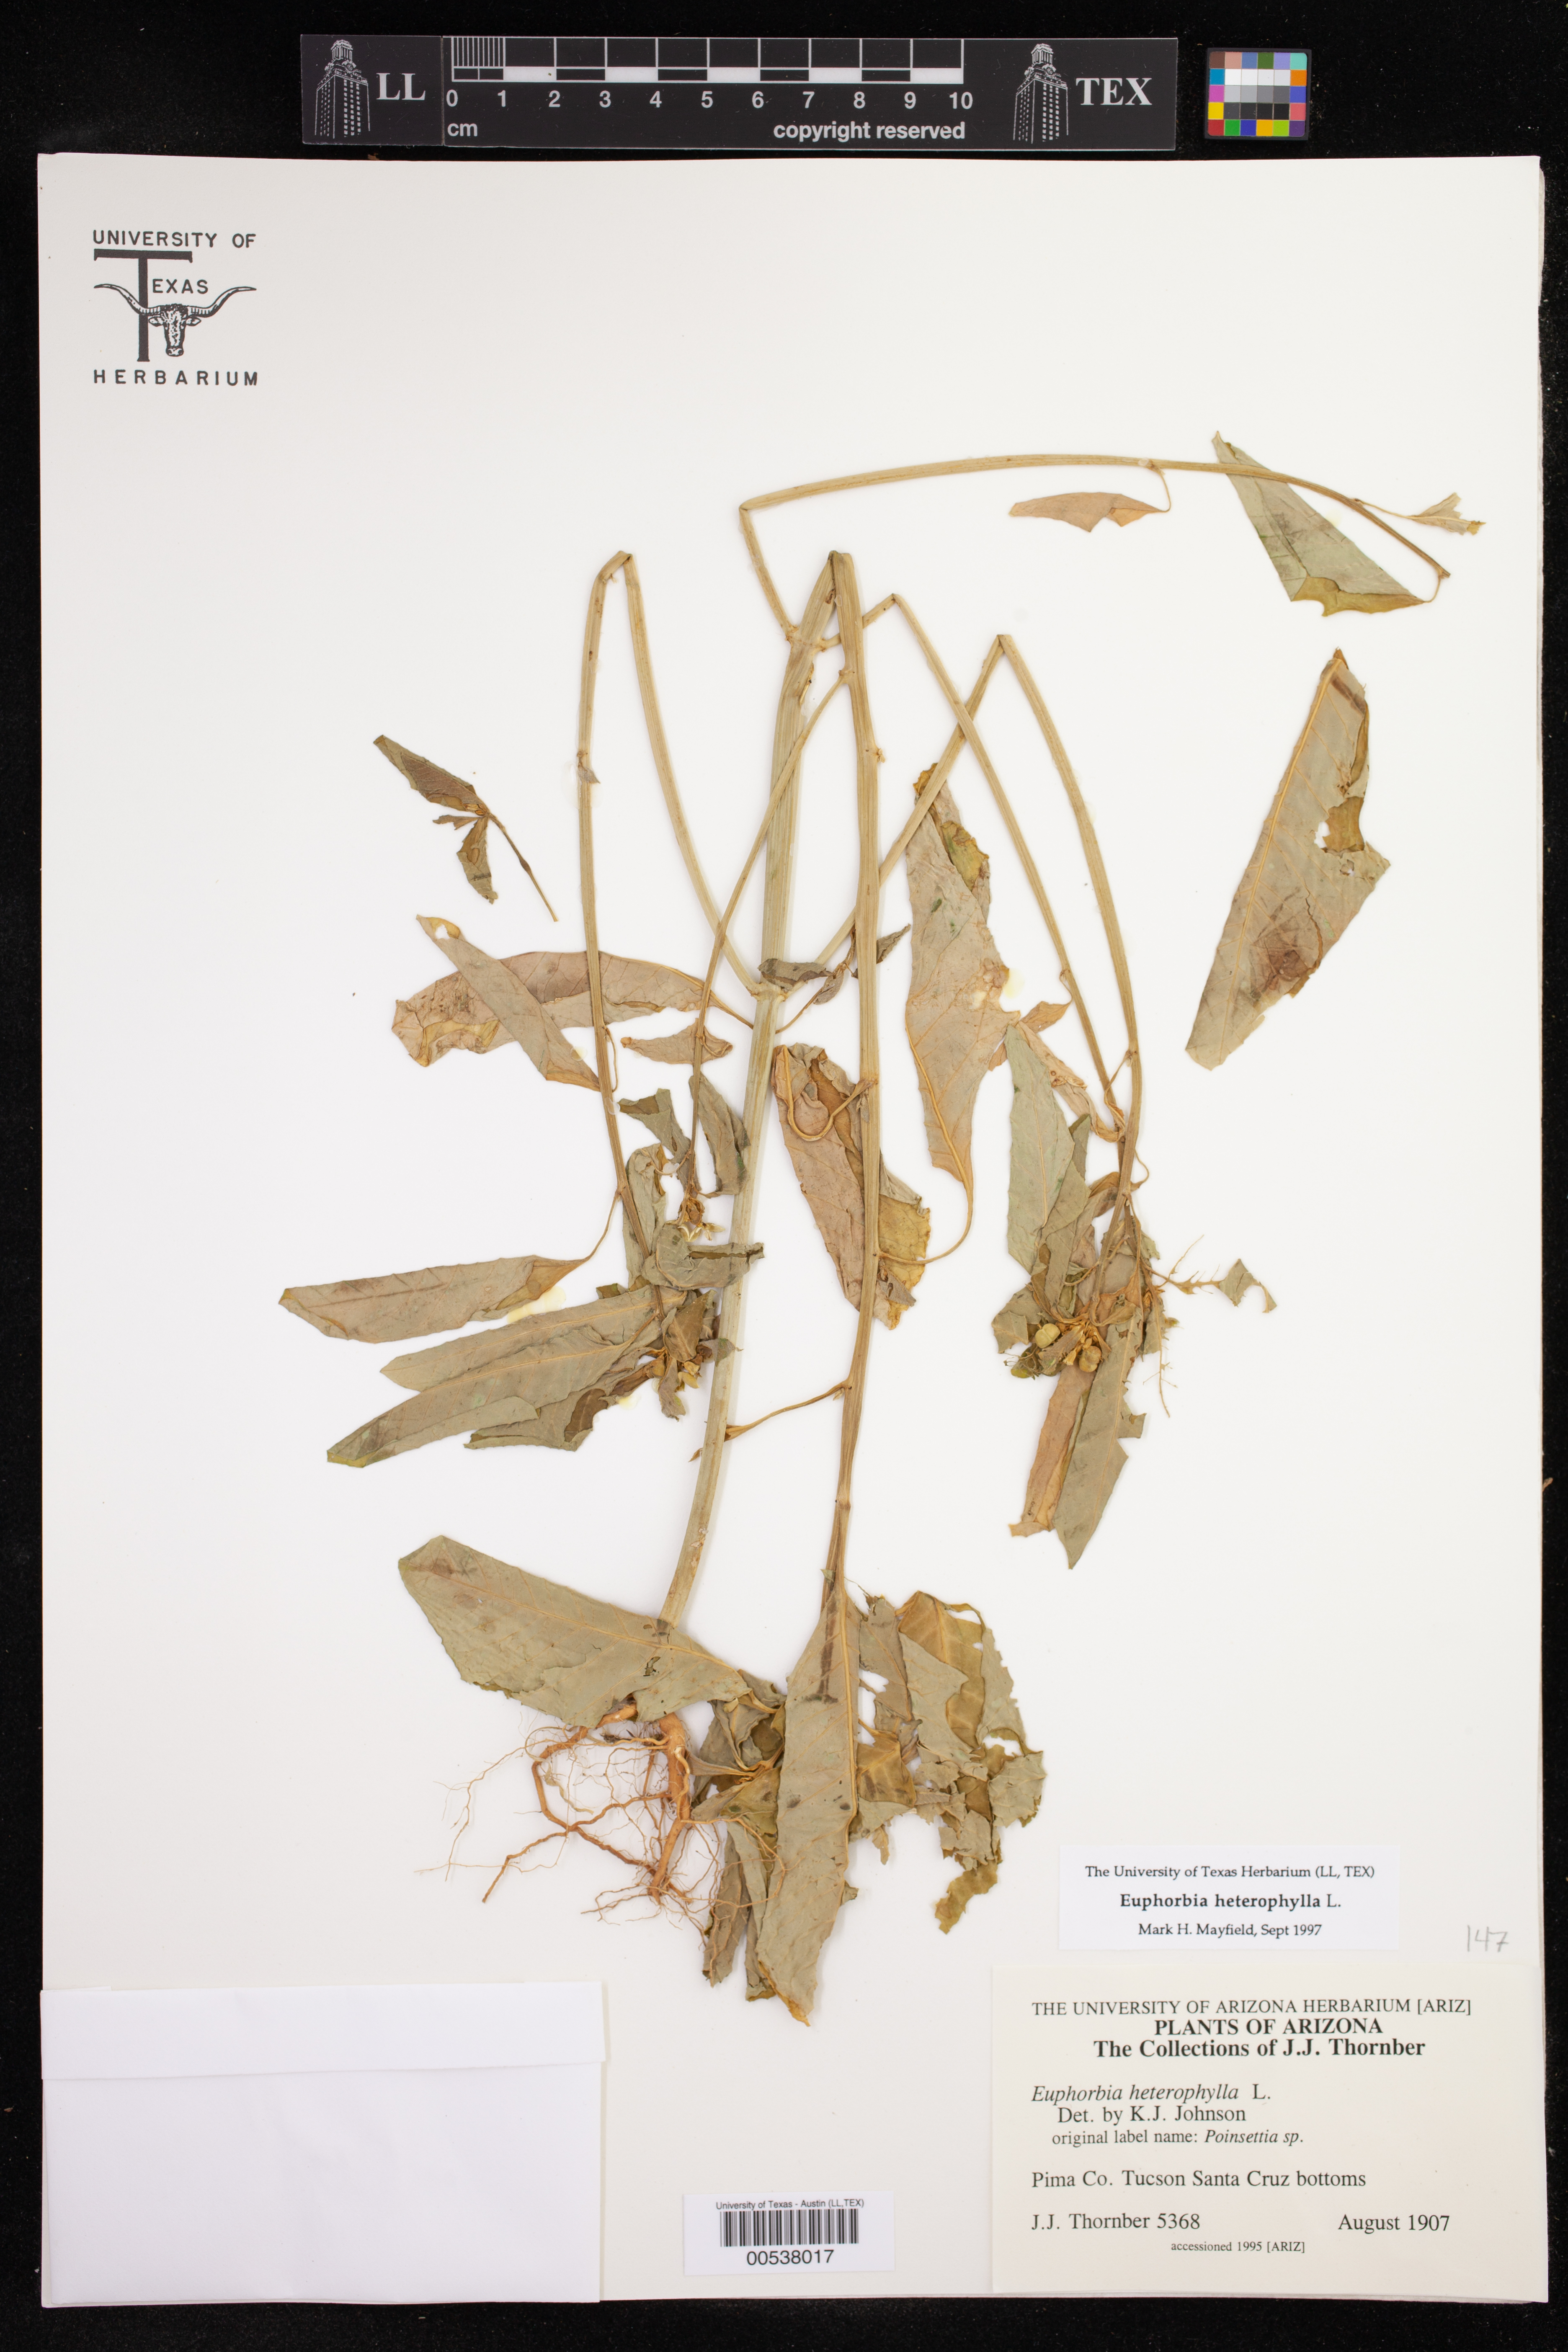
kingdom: Plantae
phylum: Tracheophyta
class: Magnoliopsida
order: Malpighiales
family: Euphorbiaceae
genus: Euphorbia
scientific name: Euphorbia heterophylla
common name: Mexican fireplant
